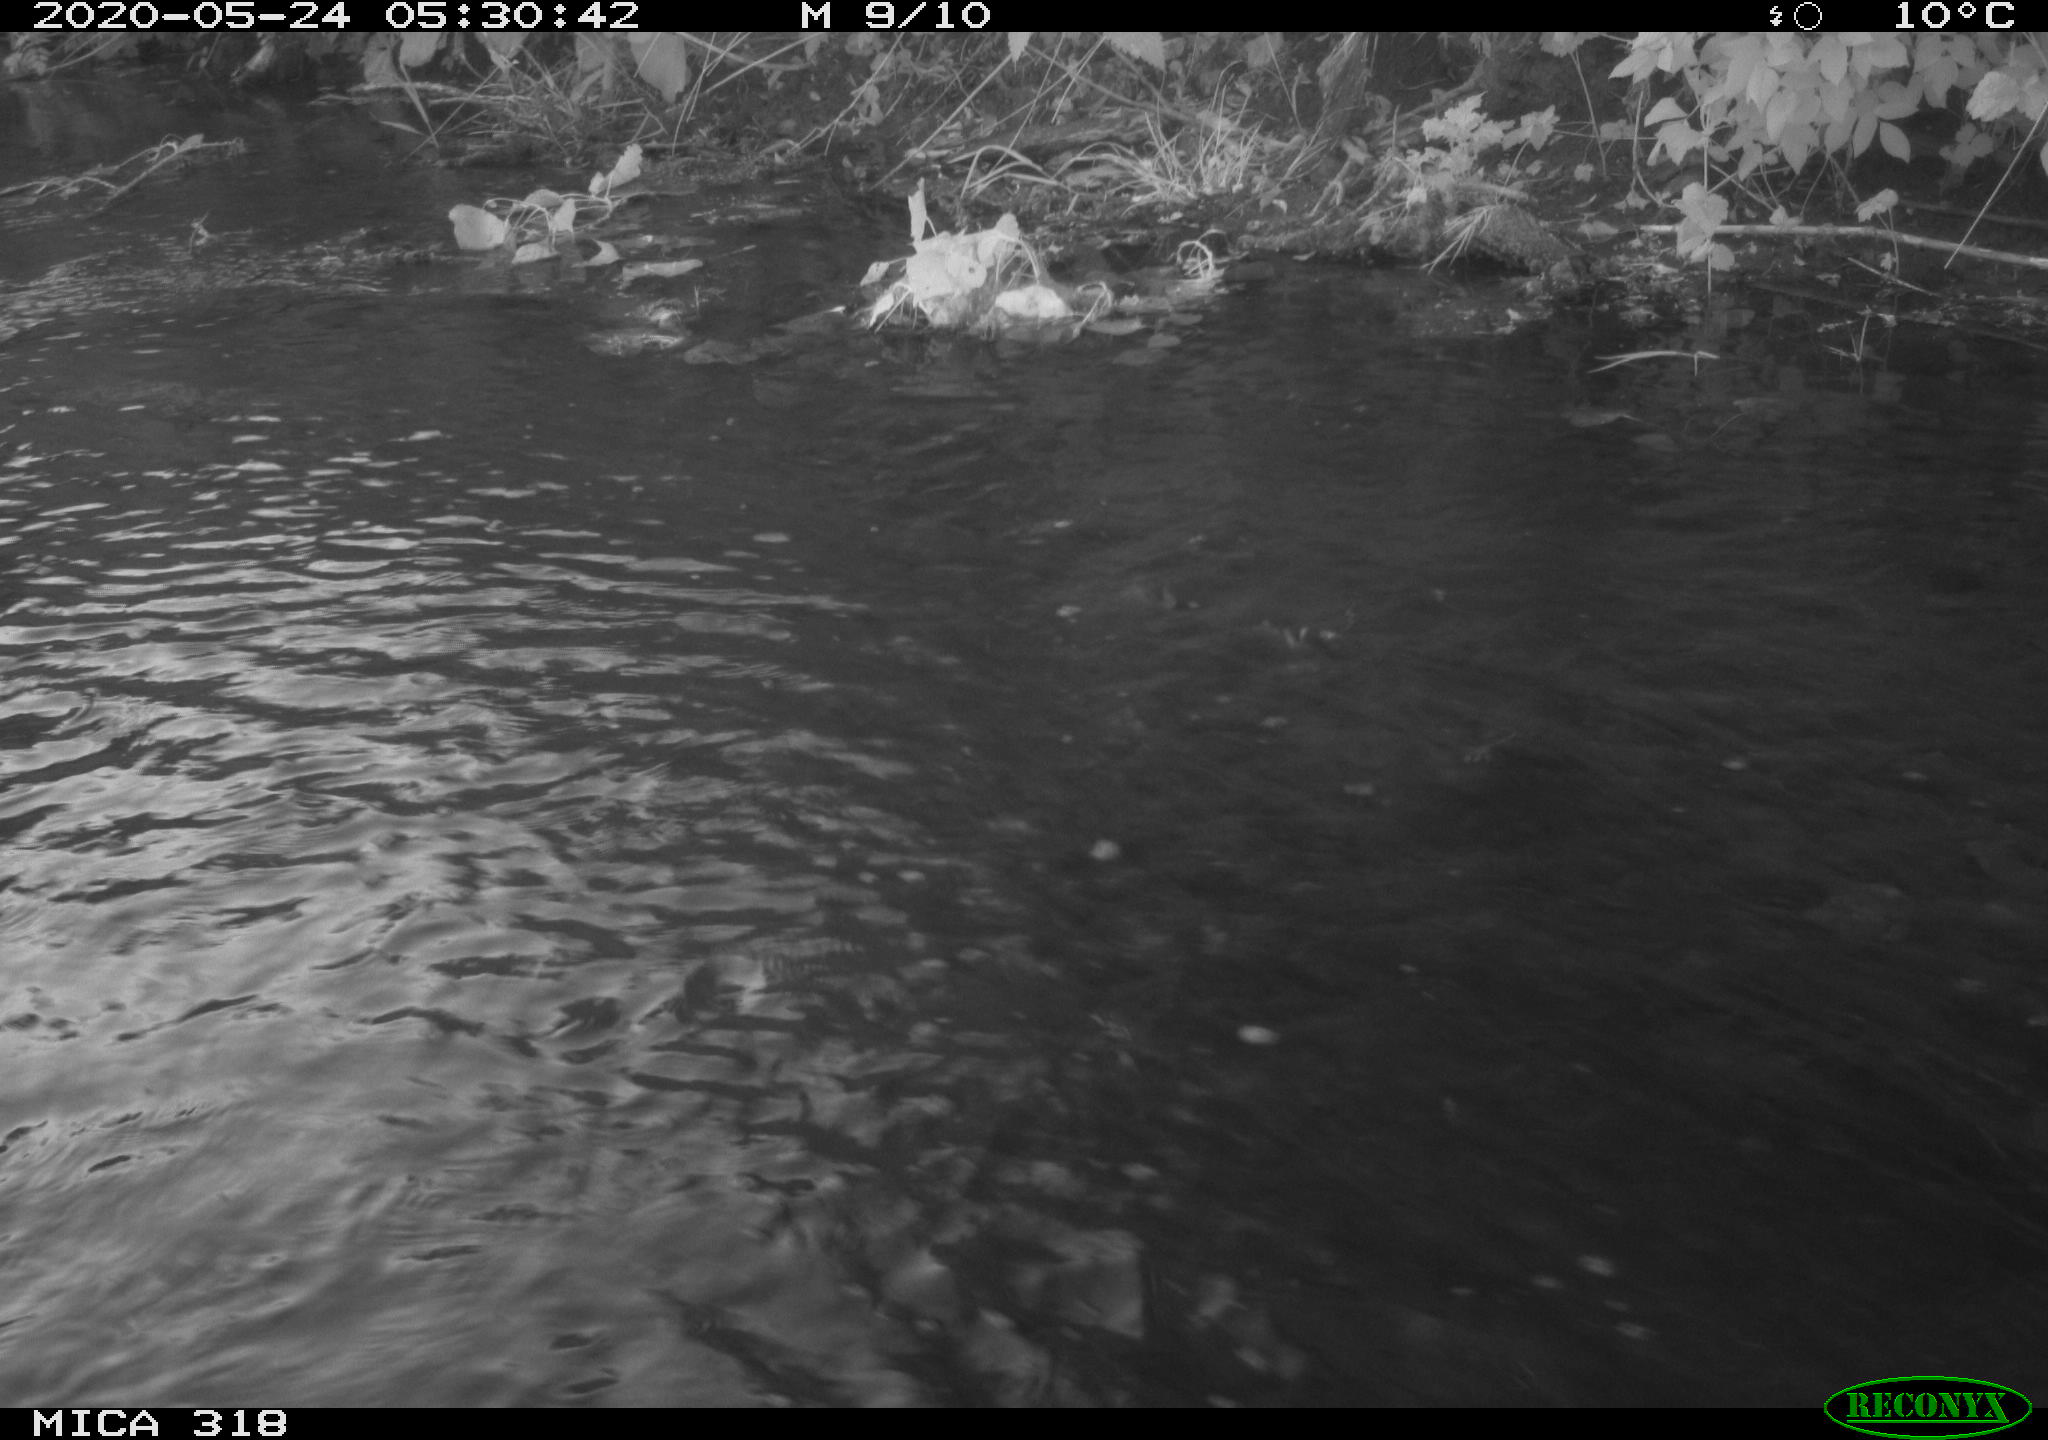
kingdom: Animalia
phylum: Chordata
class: Aves
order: Anseriformes
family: Anatidae
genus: Anas
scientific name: Anas platyrhynchos
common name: Mallard
